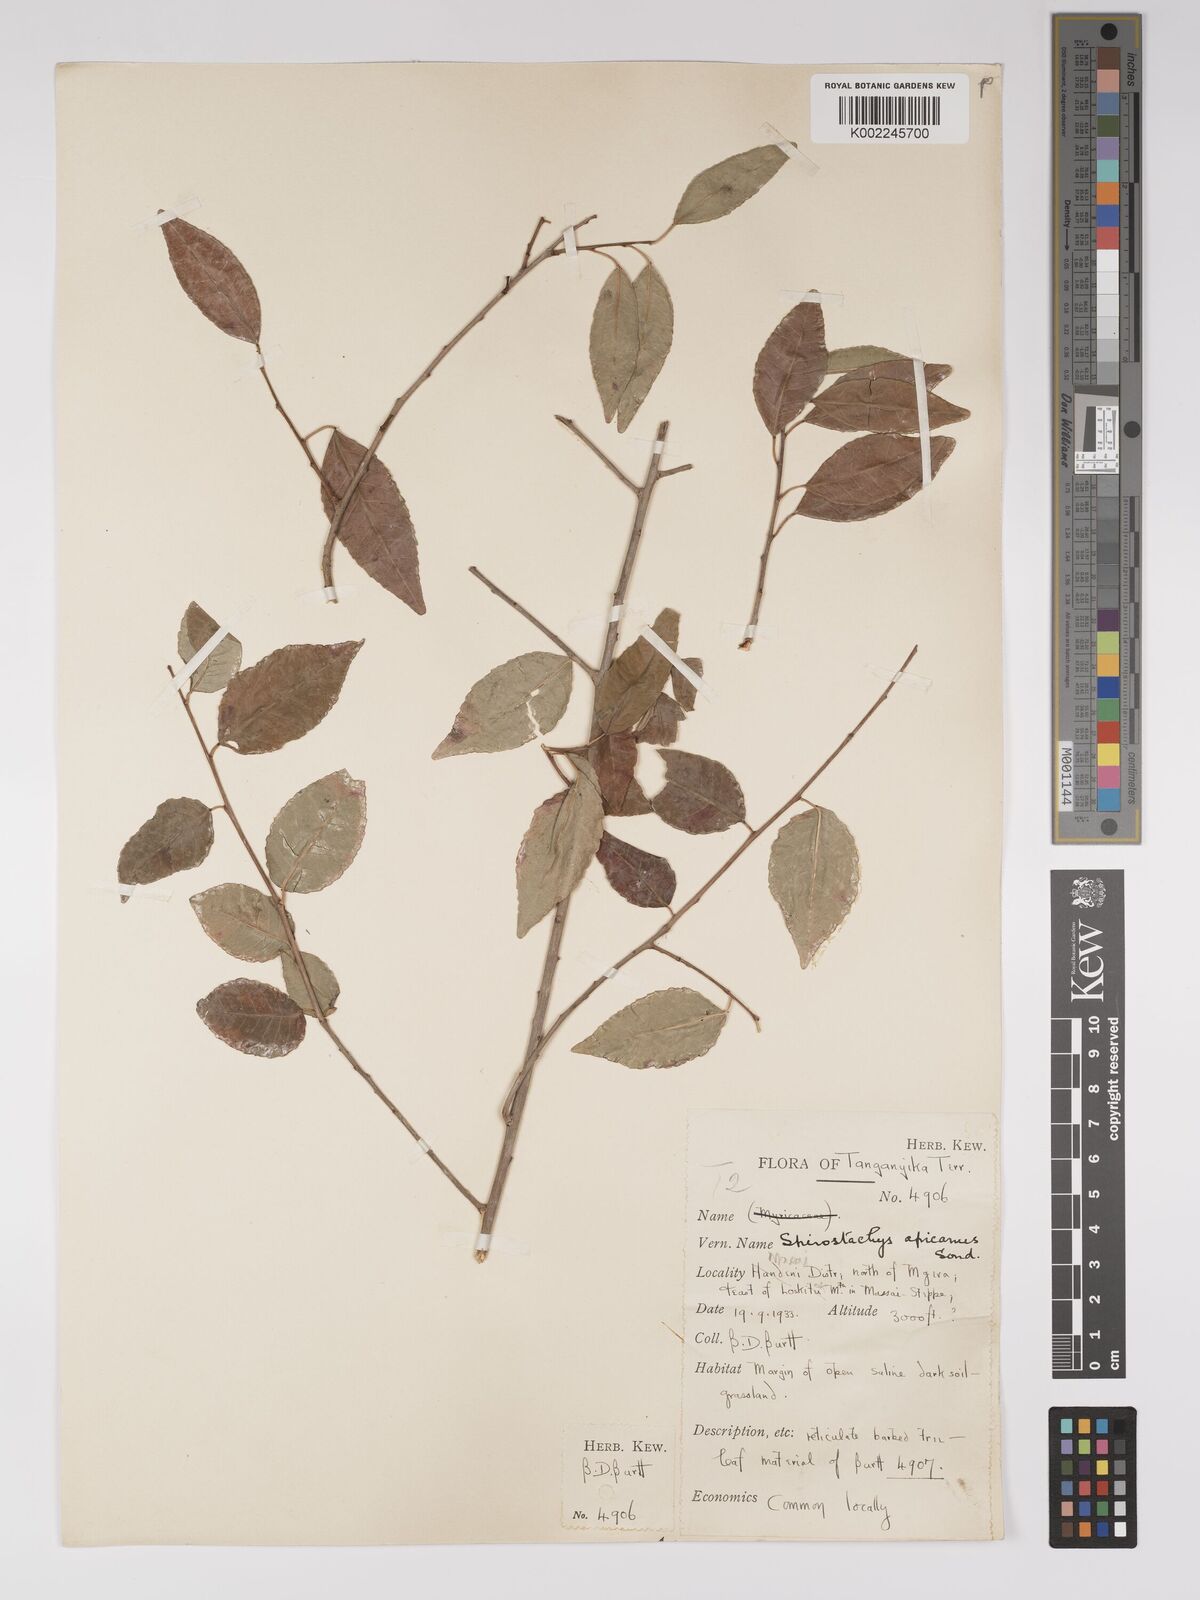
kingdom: Plantae
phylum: Tracheophyta
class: Magnoliopsida
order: Malpighiales
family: Euphorbiaceae
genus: Spirostachys
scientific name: Spirostachys africana
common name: Tamboti
